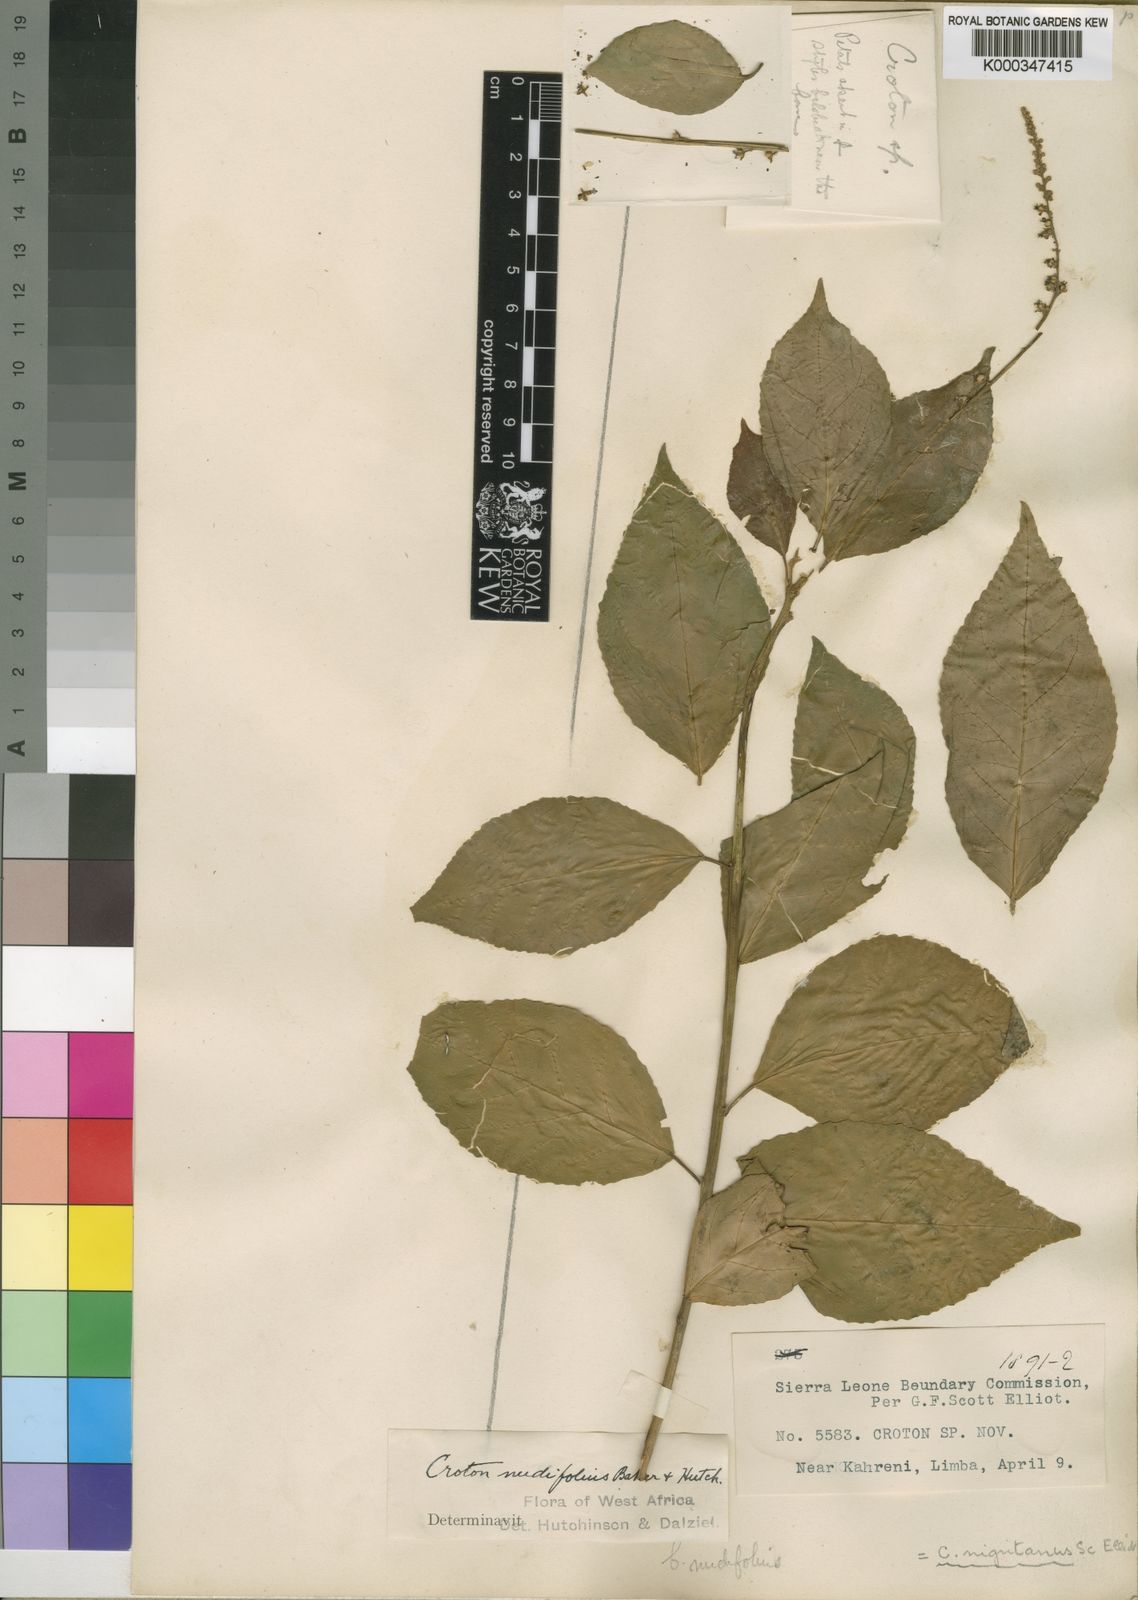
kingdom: Plantae
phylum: Tracheophyta
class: Magnoliopsida
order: Malpighiales
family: Euphorbiaceae
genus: Croton
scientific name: Croton nigritanus
